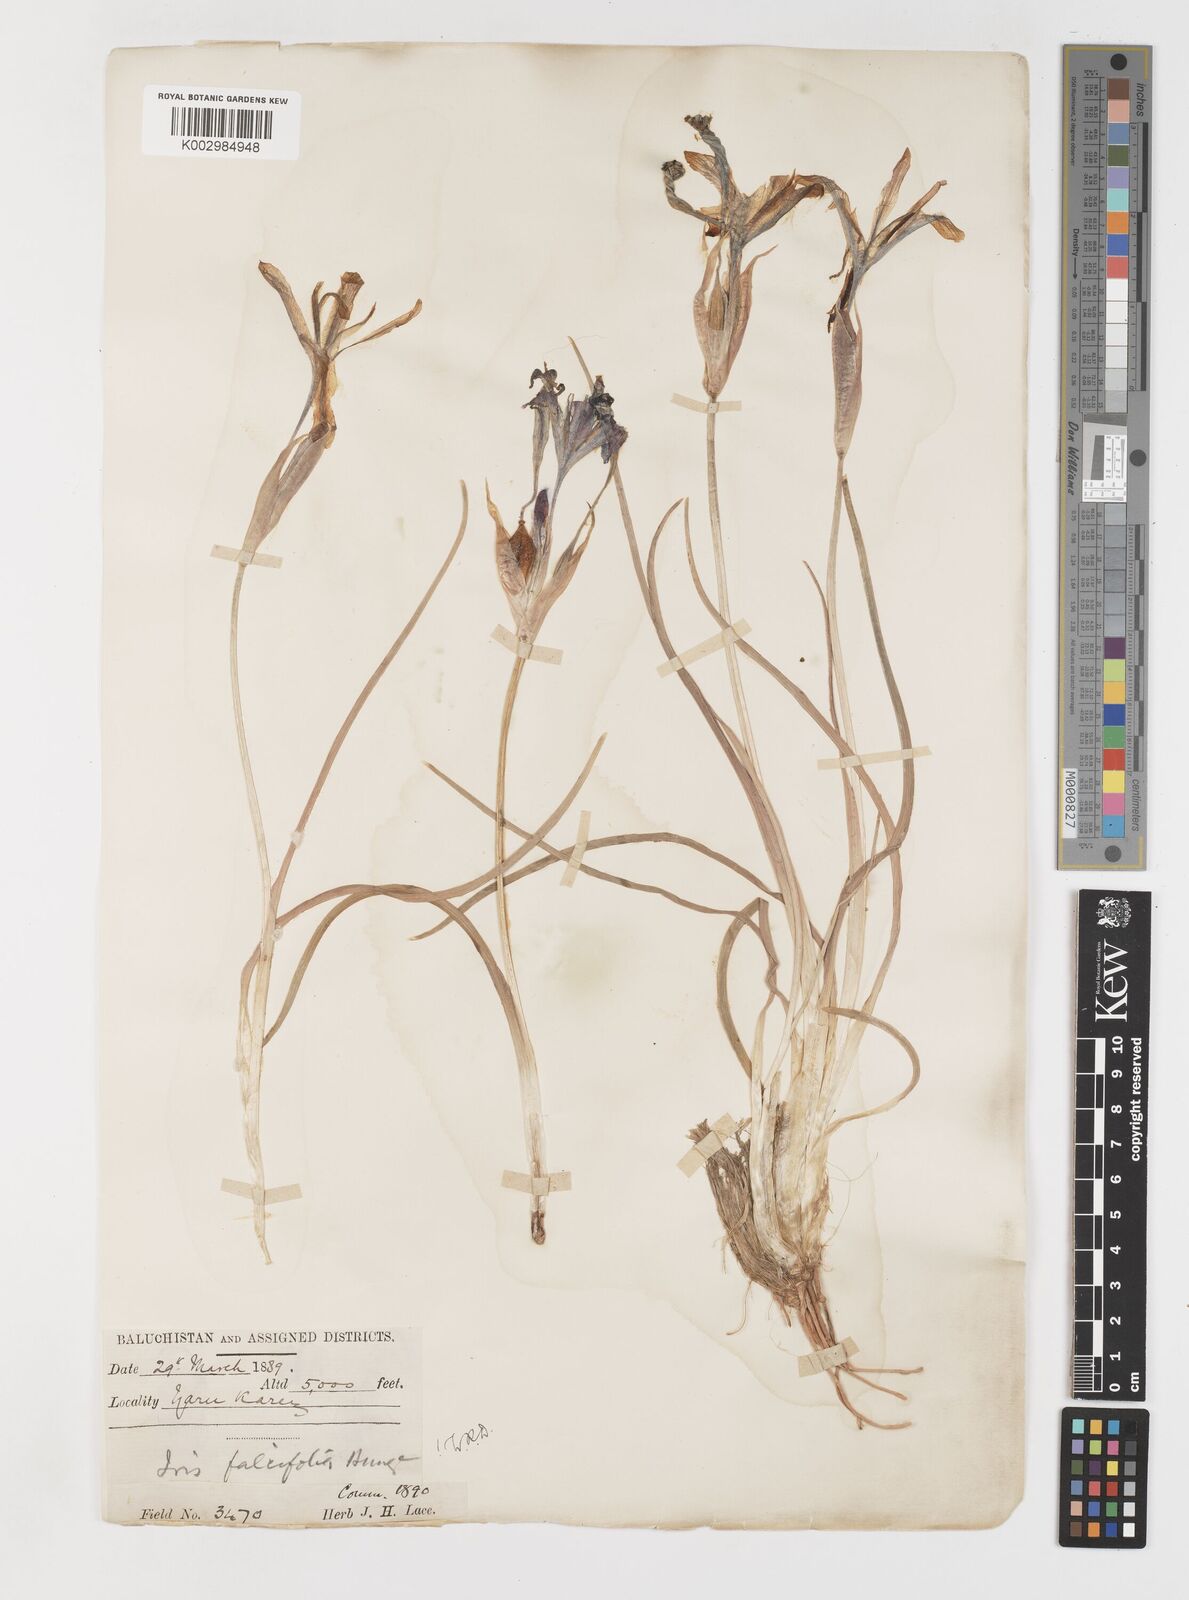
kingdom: Plantae
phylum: Tracheophyta
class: Liliopsida
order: Asparagales
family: Iridaceae
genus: Iris
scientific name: Iris longiscapa
